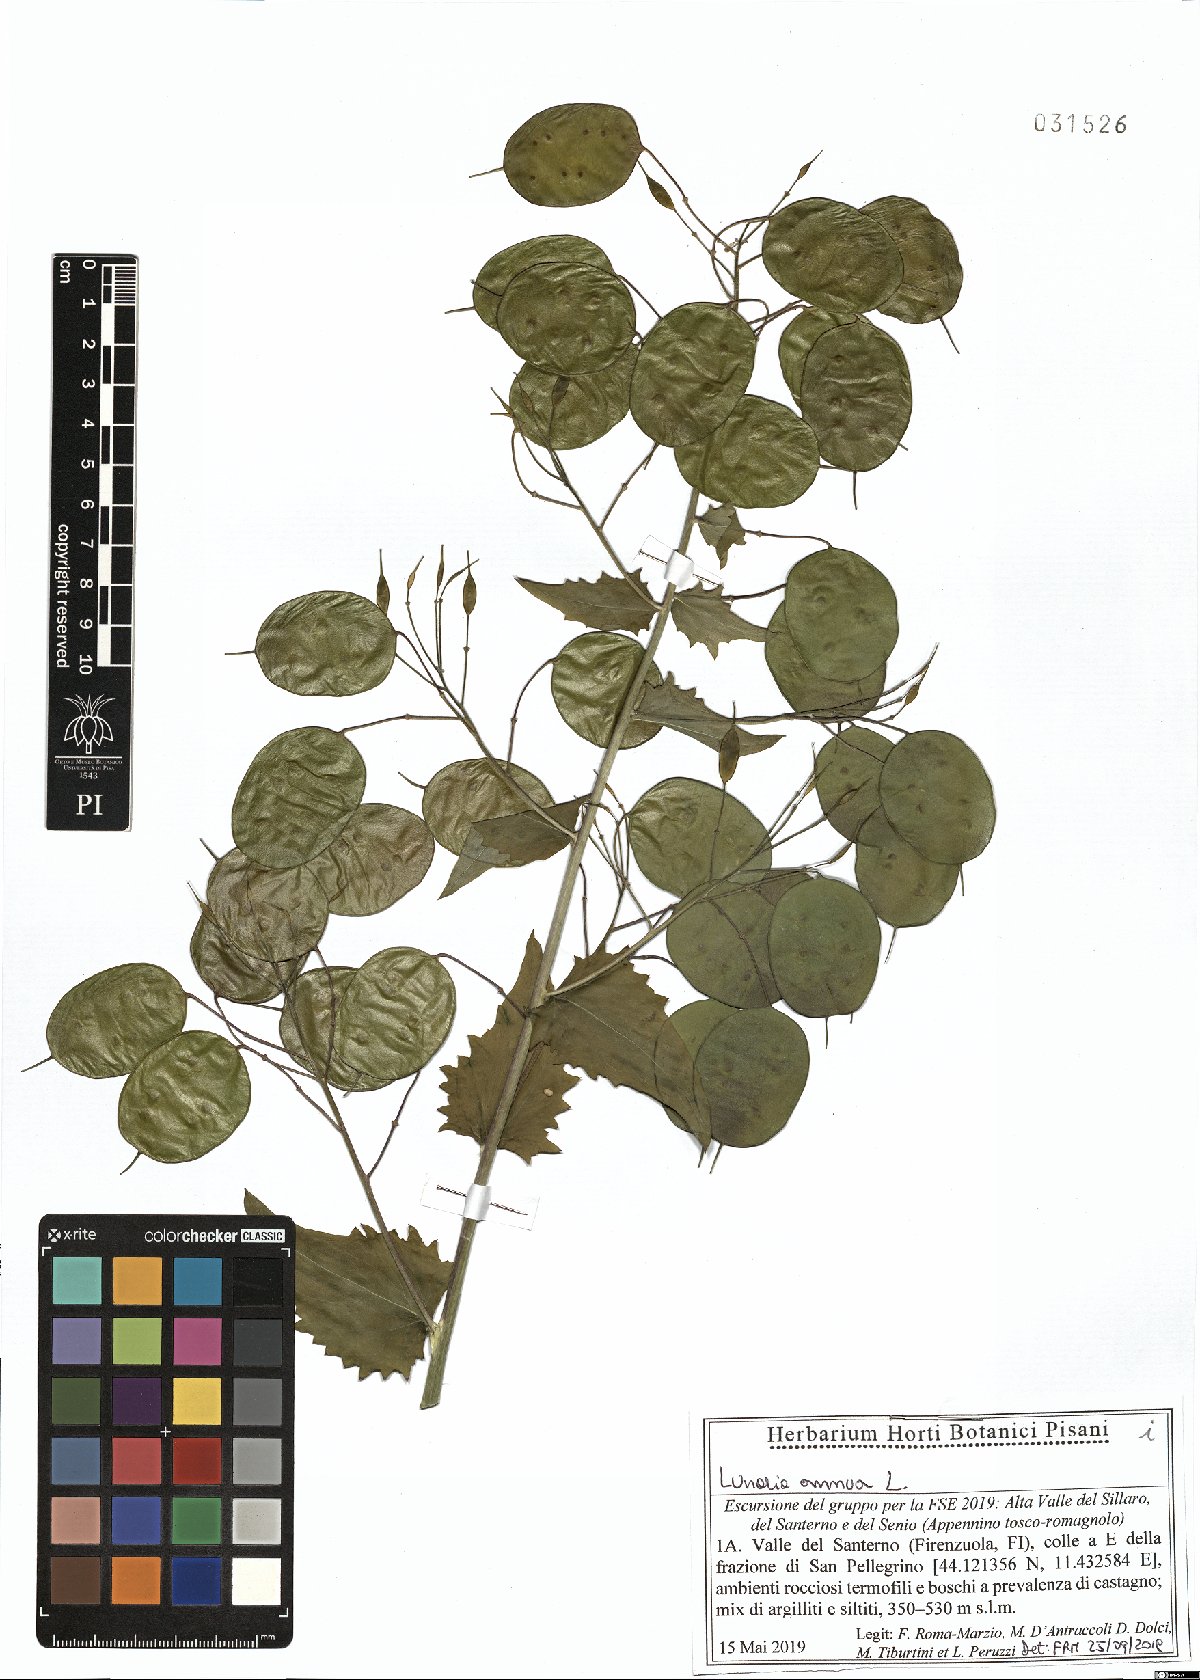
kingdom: Plantae
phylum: Tracheophyta
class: Magnoliopsida
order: Brassicales
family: Brassicaceae
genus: Lunaria
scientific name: Lunaria annua
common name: Honesty
